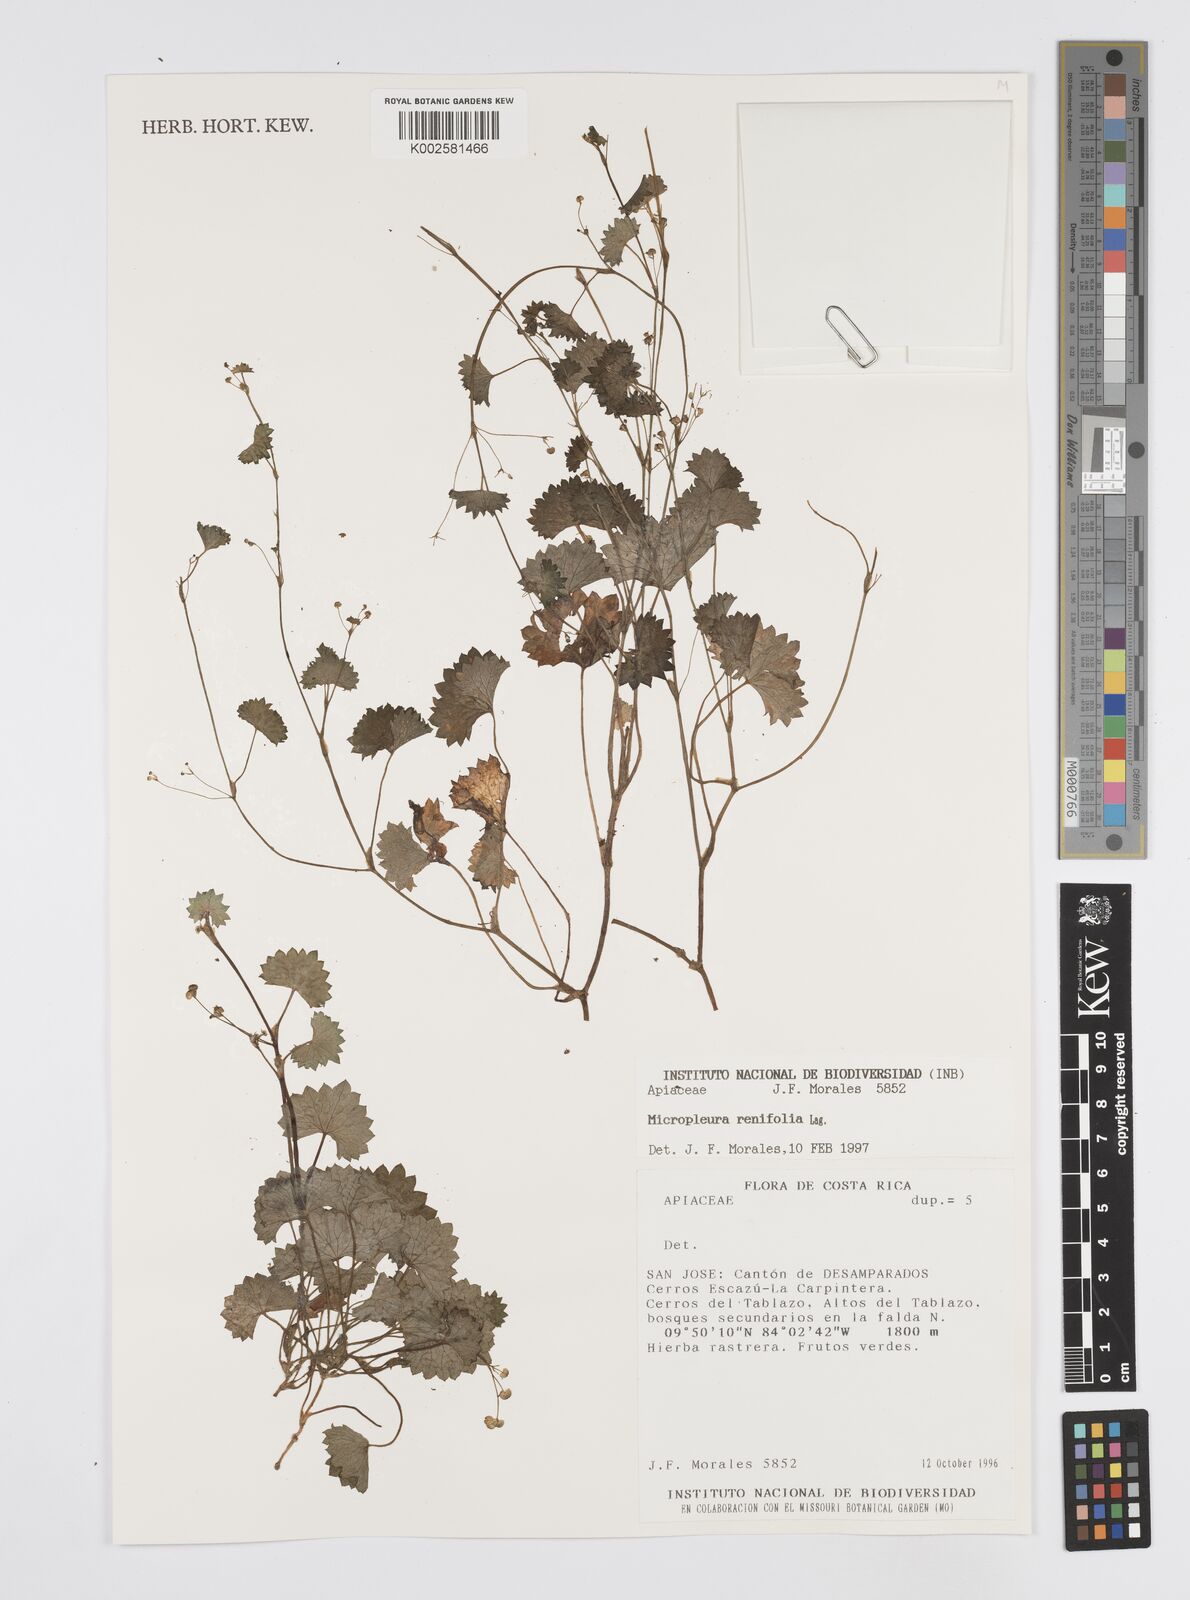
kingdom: Plantae
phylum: Tracheophyta
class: Magnoliopsida
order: Apiales
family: Apiaceae
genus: Micropleura
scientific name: Micropleura renifolia
